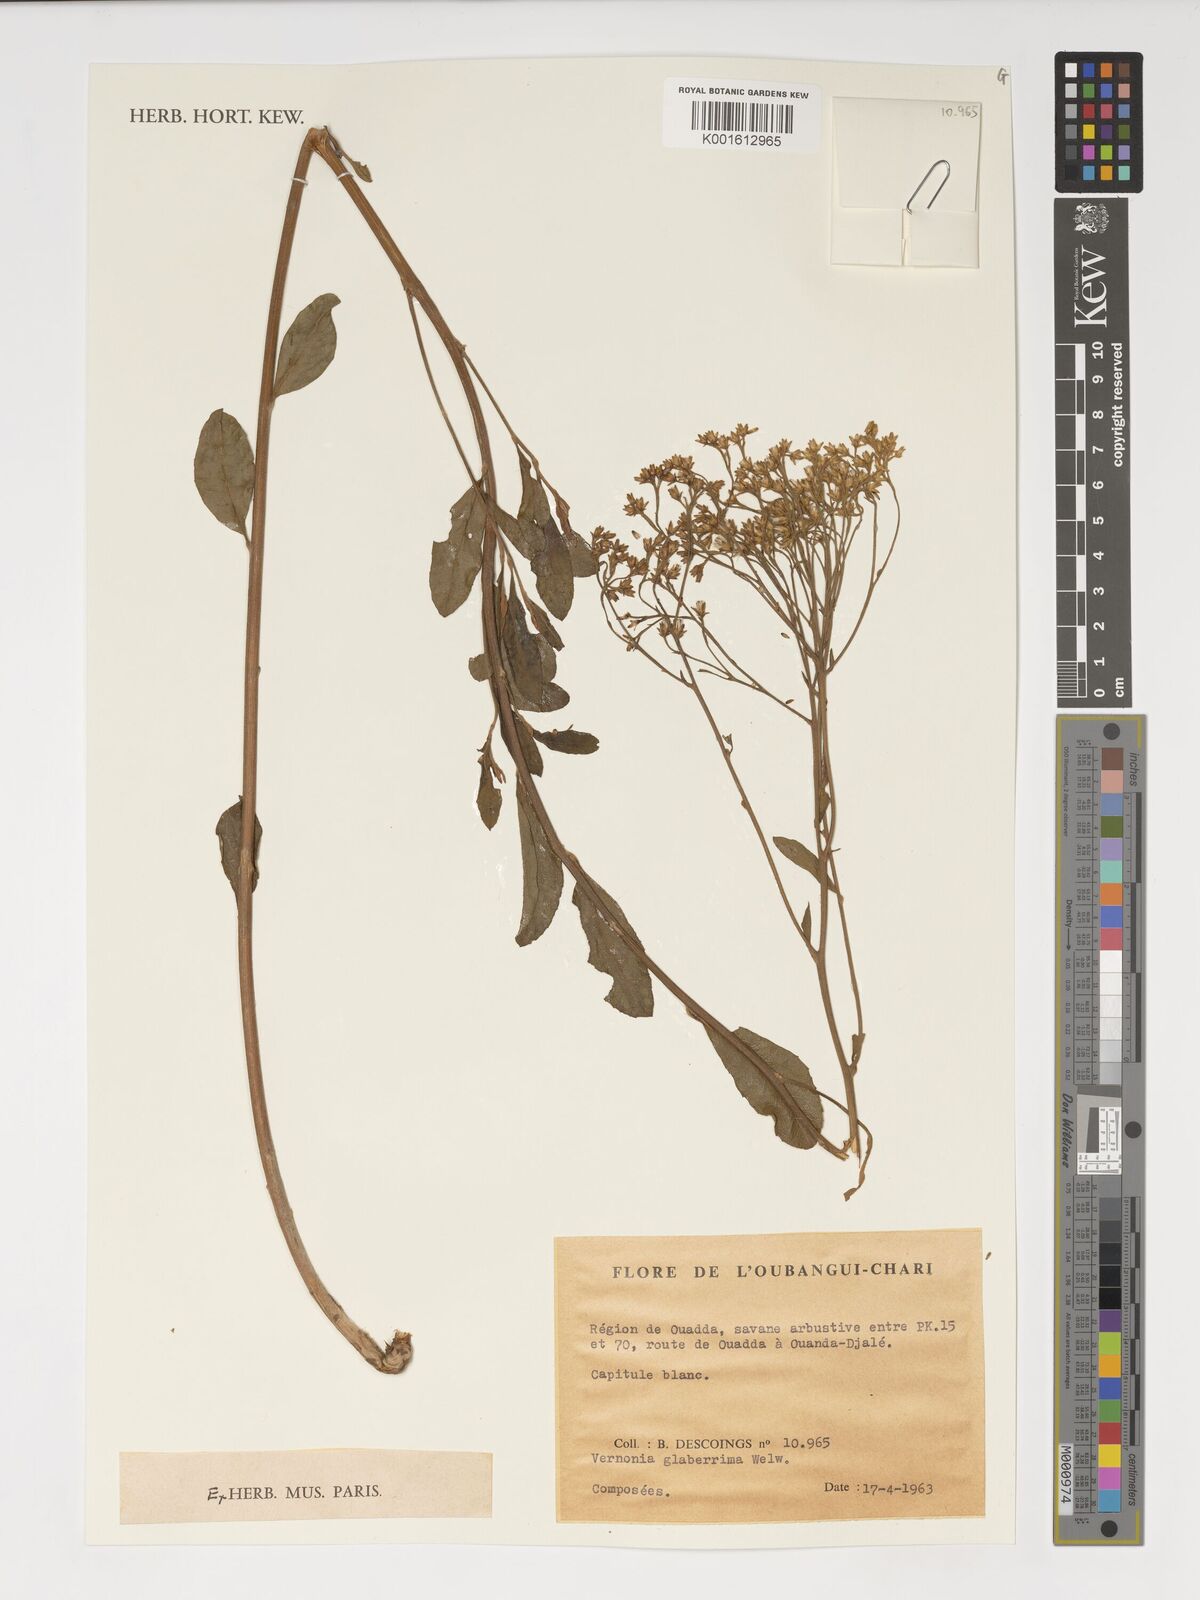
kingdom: Plantae
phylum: Tracheophyta
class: Magnoliopsida
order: Asterales
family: Asteraceae
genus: Gymnanthemum
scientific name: Gymnanthemum glaberrimum
